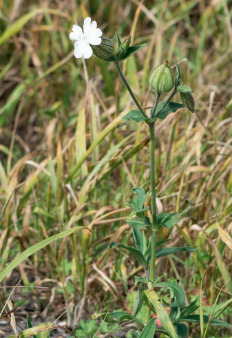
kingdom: Plantae
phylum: Tracheophyta
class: Magnoliopsida
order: Caryophyllales
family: Caryophyllaceae
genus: Silene
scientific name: Silene latifolia
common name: Aftenpragtstjerne
